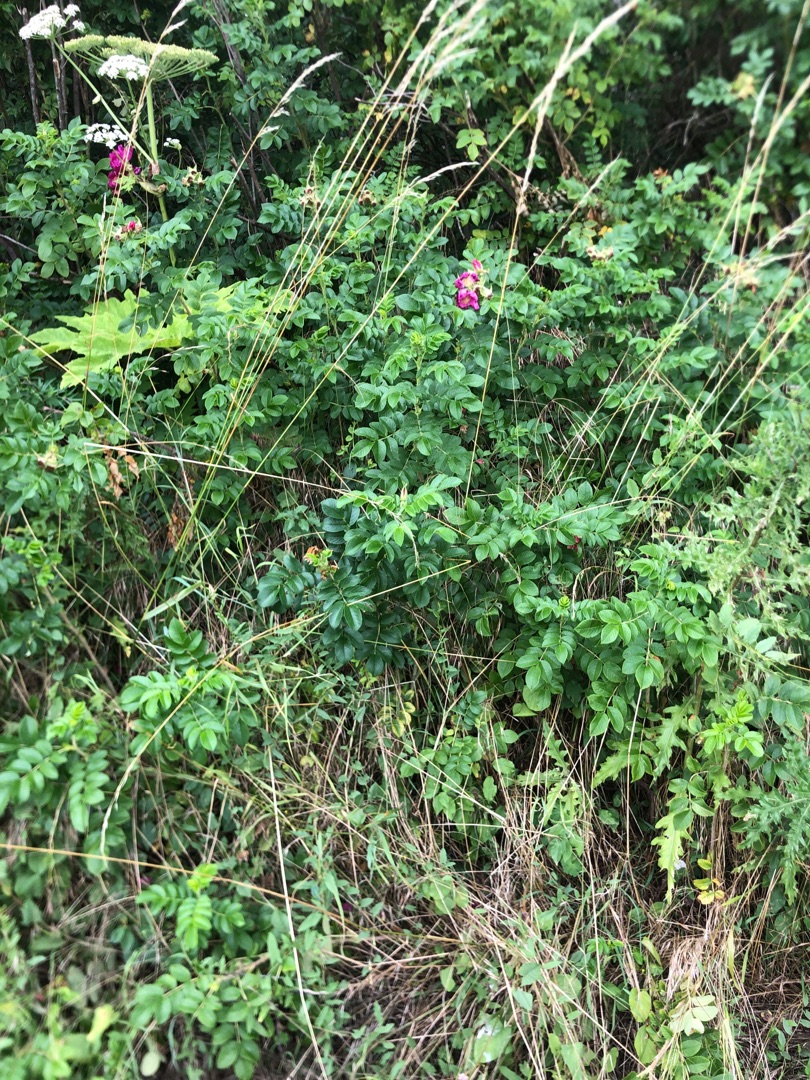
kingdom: Plantae
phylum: Tracheophyta
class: Magnoliopsida
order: Rosales
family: Rosaceae
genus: Rosa
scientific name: Rosa rugosa
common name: Rynket rose
